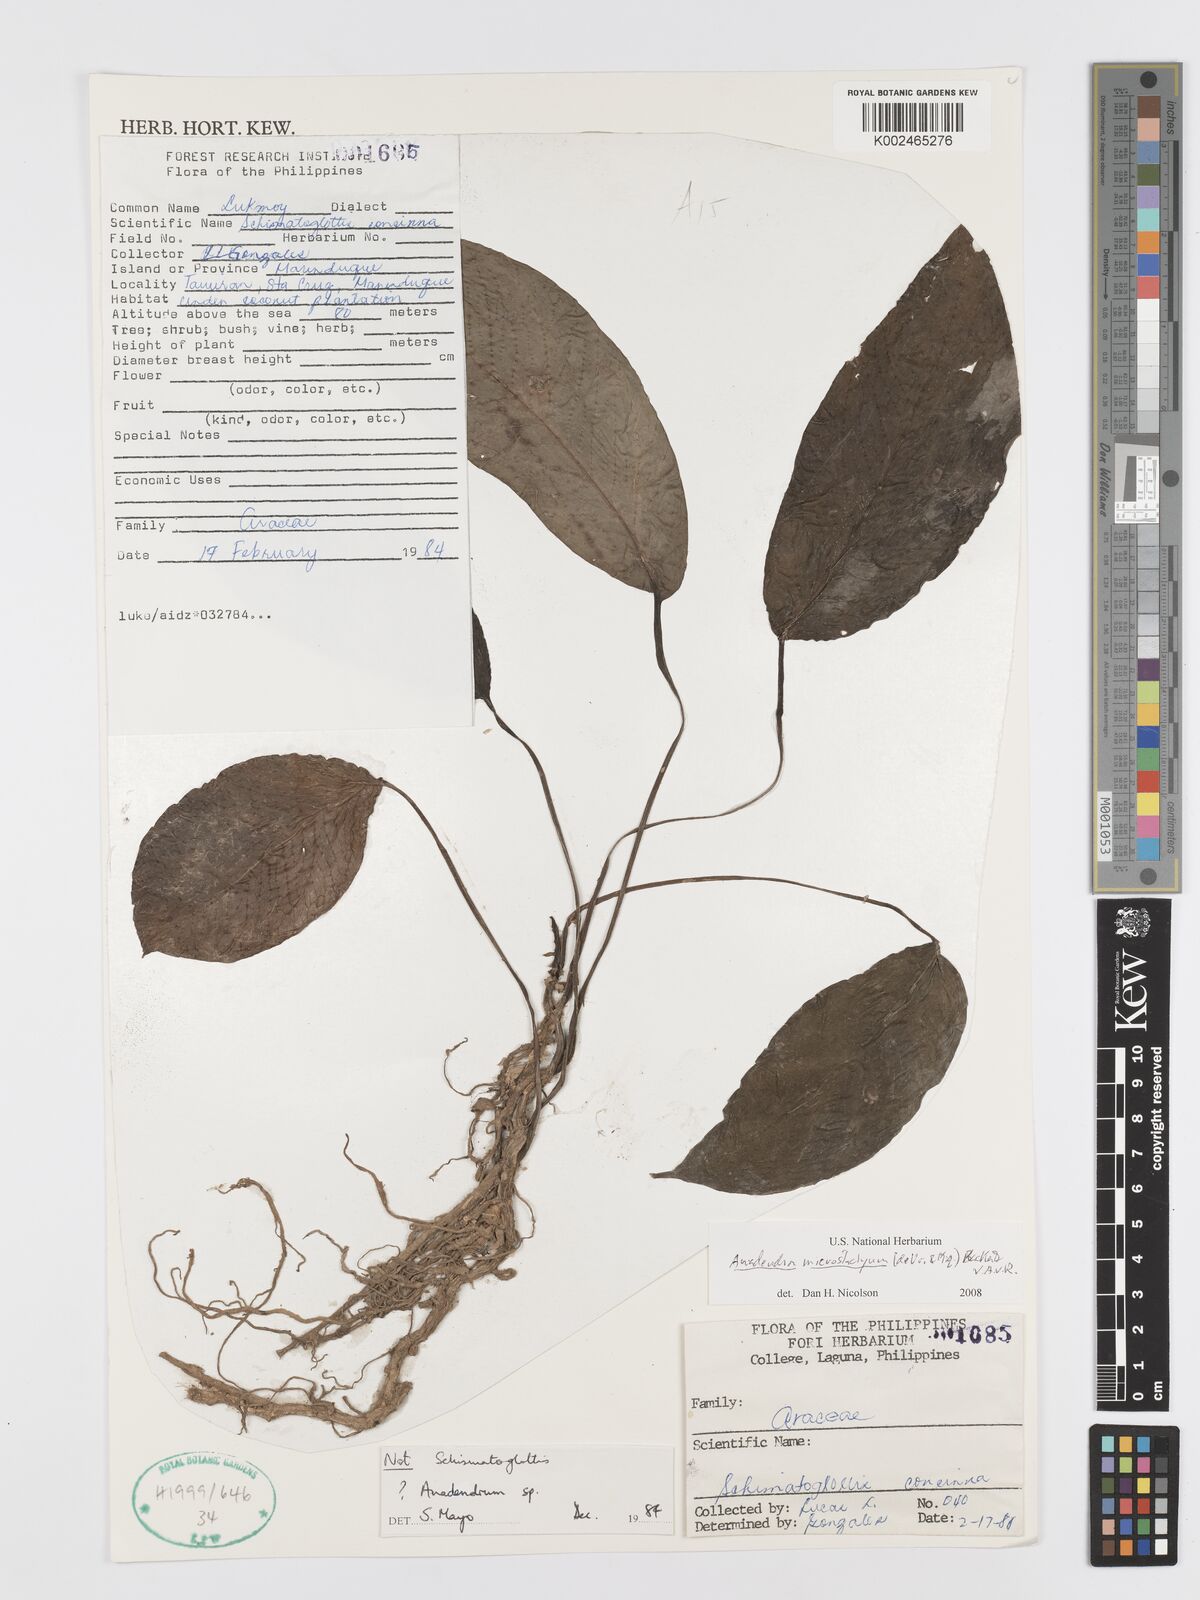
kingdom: Plantae
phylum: Tracheophyta
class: Liliopsida
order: Alismatales
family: Araceae
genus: Anadendrum
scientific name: Anadendrum microstachyum
